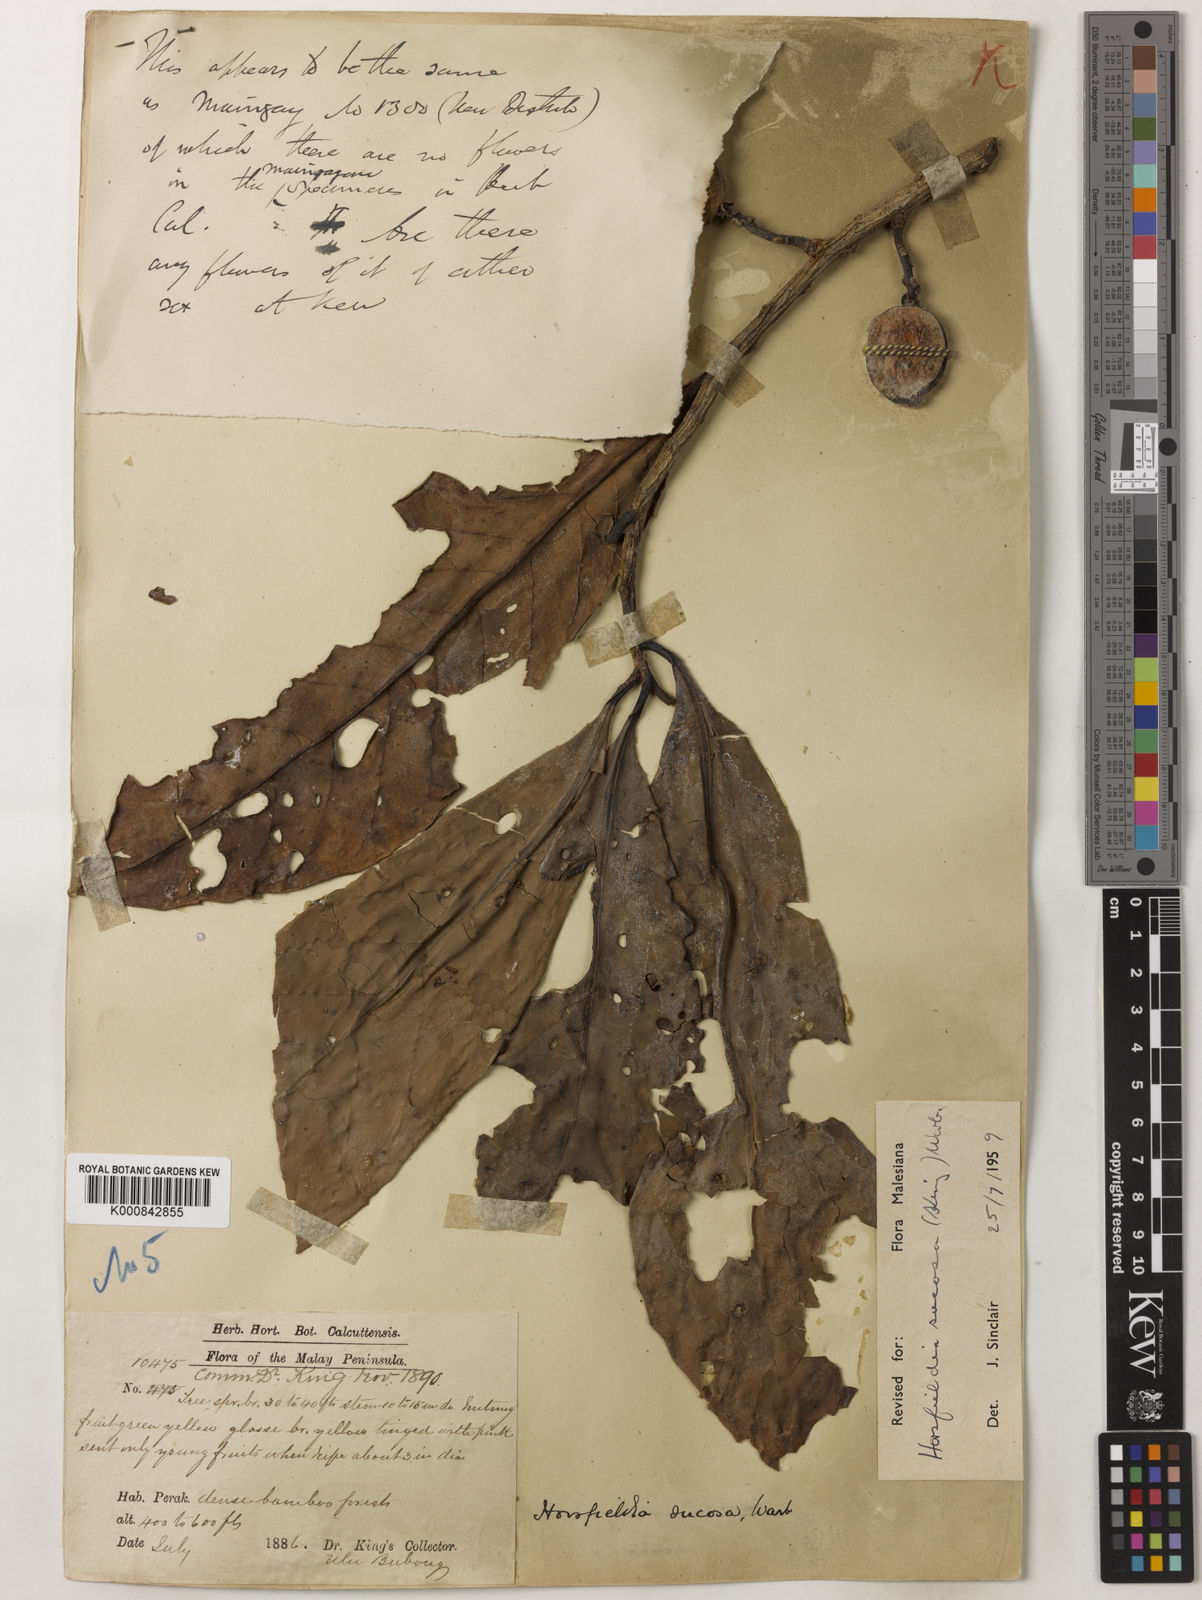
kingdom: Plantae
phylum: Tracheophyta
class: Magnoliopsida
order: Magnoliales
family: Myristicaceae
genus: Horsfieldia
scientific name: Horsfieldia sucosa
